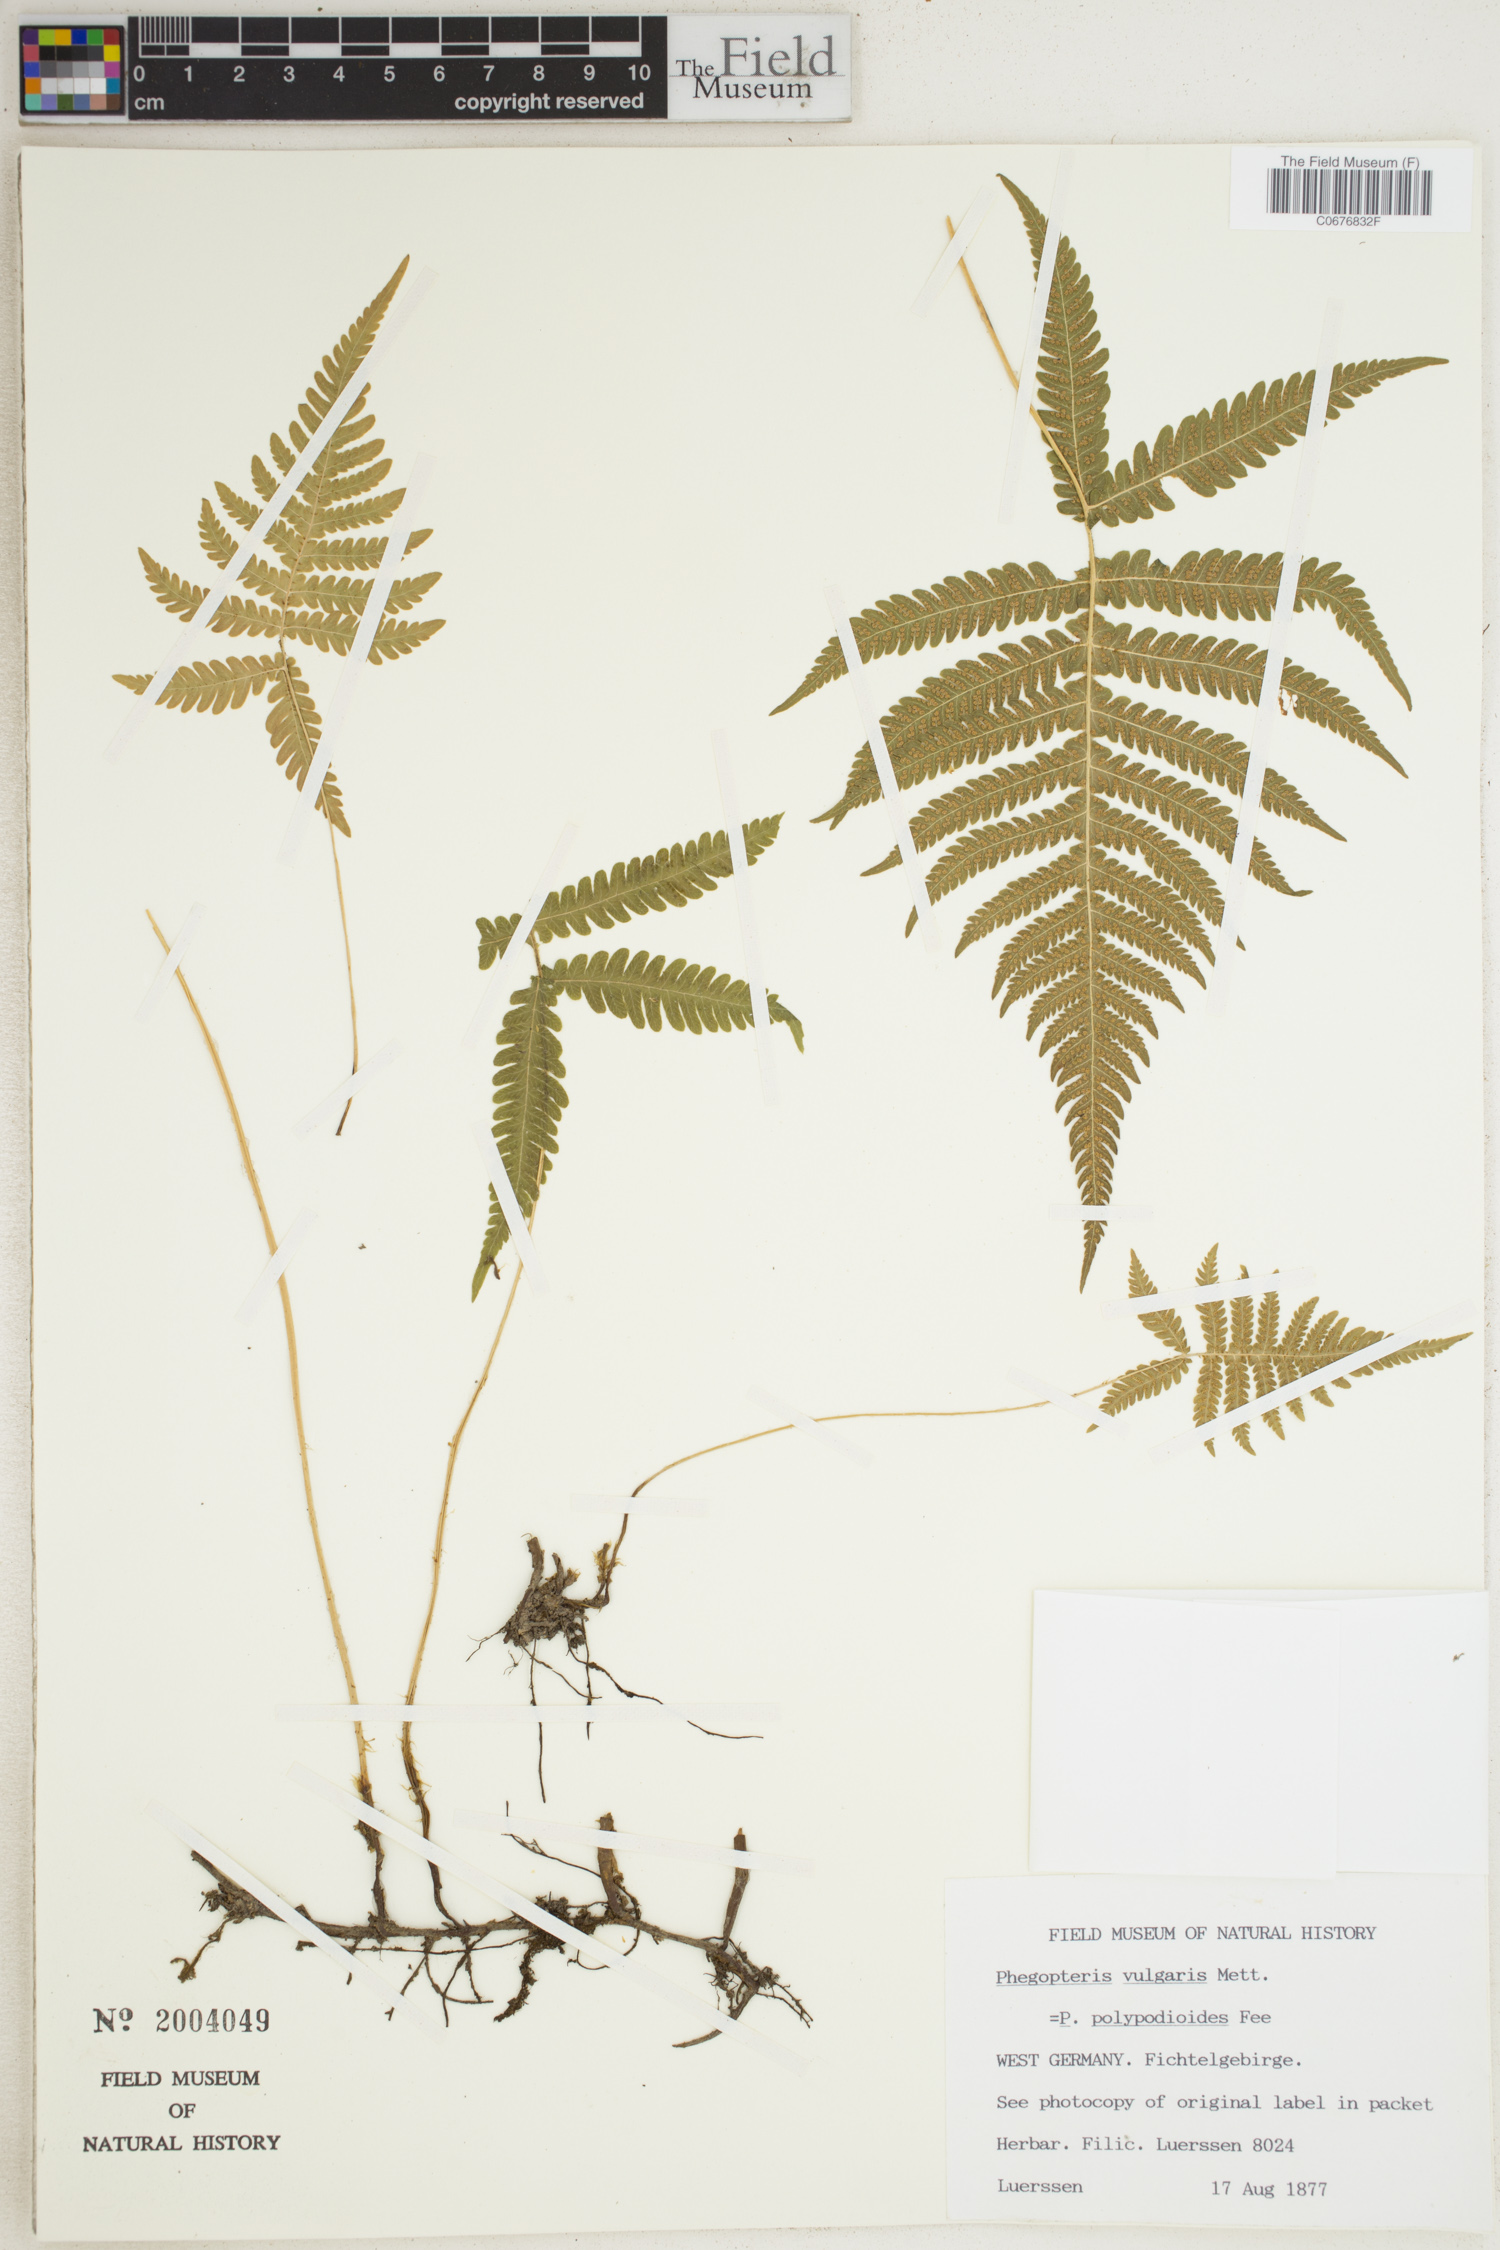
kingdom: Plantae
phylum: Tracheophyta
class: Polypodiopsida
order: Polypodiales
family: Thelypteridaceae
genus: Phegopteris
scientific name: Phegopteris connectilis
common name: Beech fern
